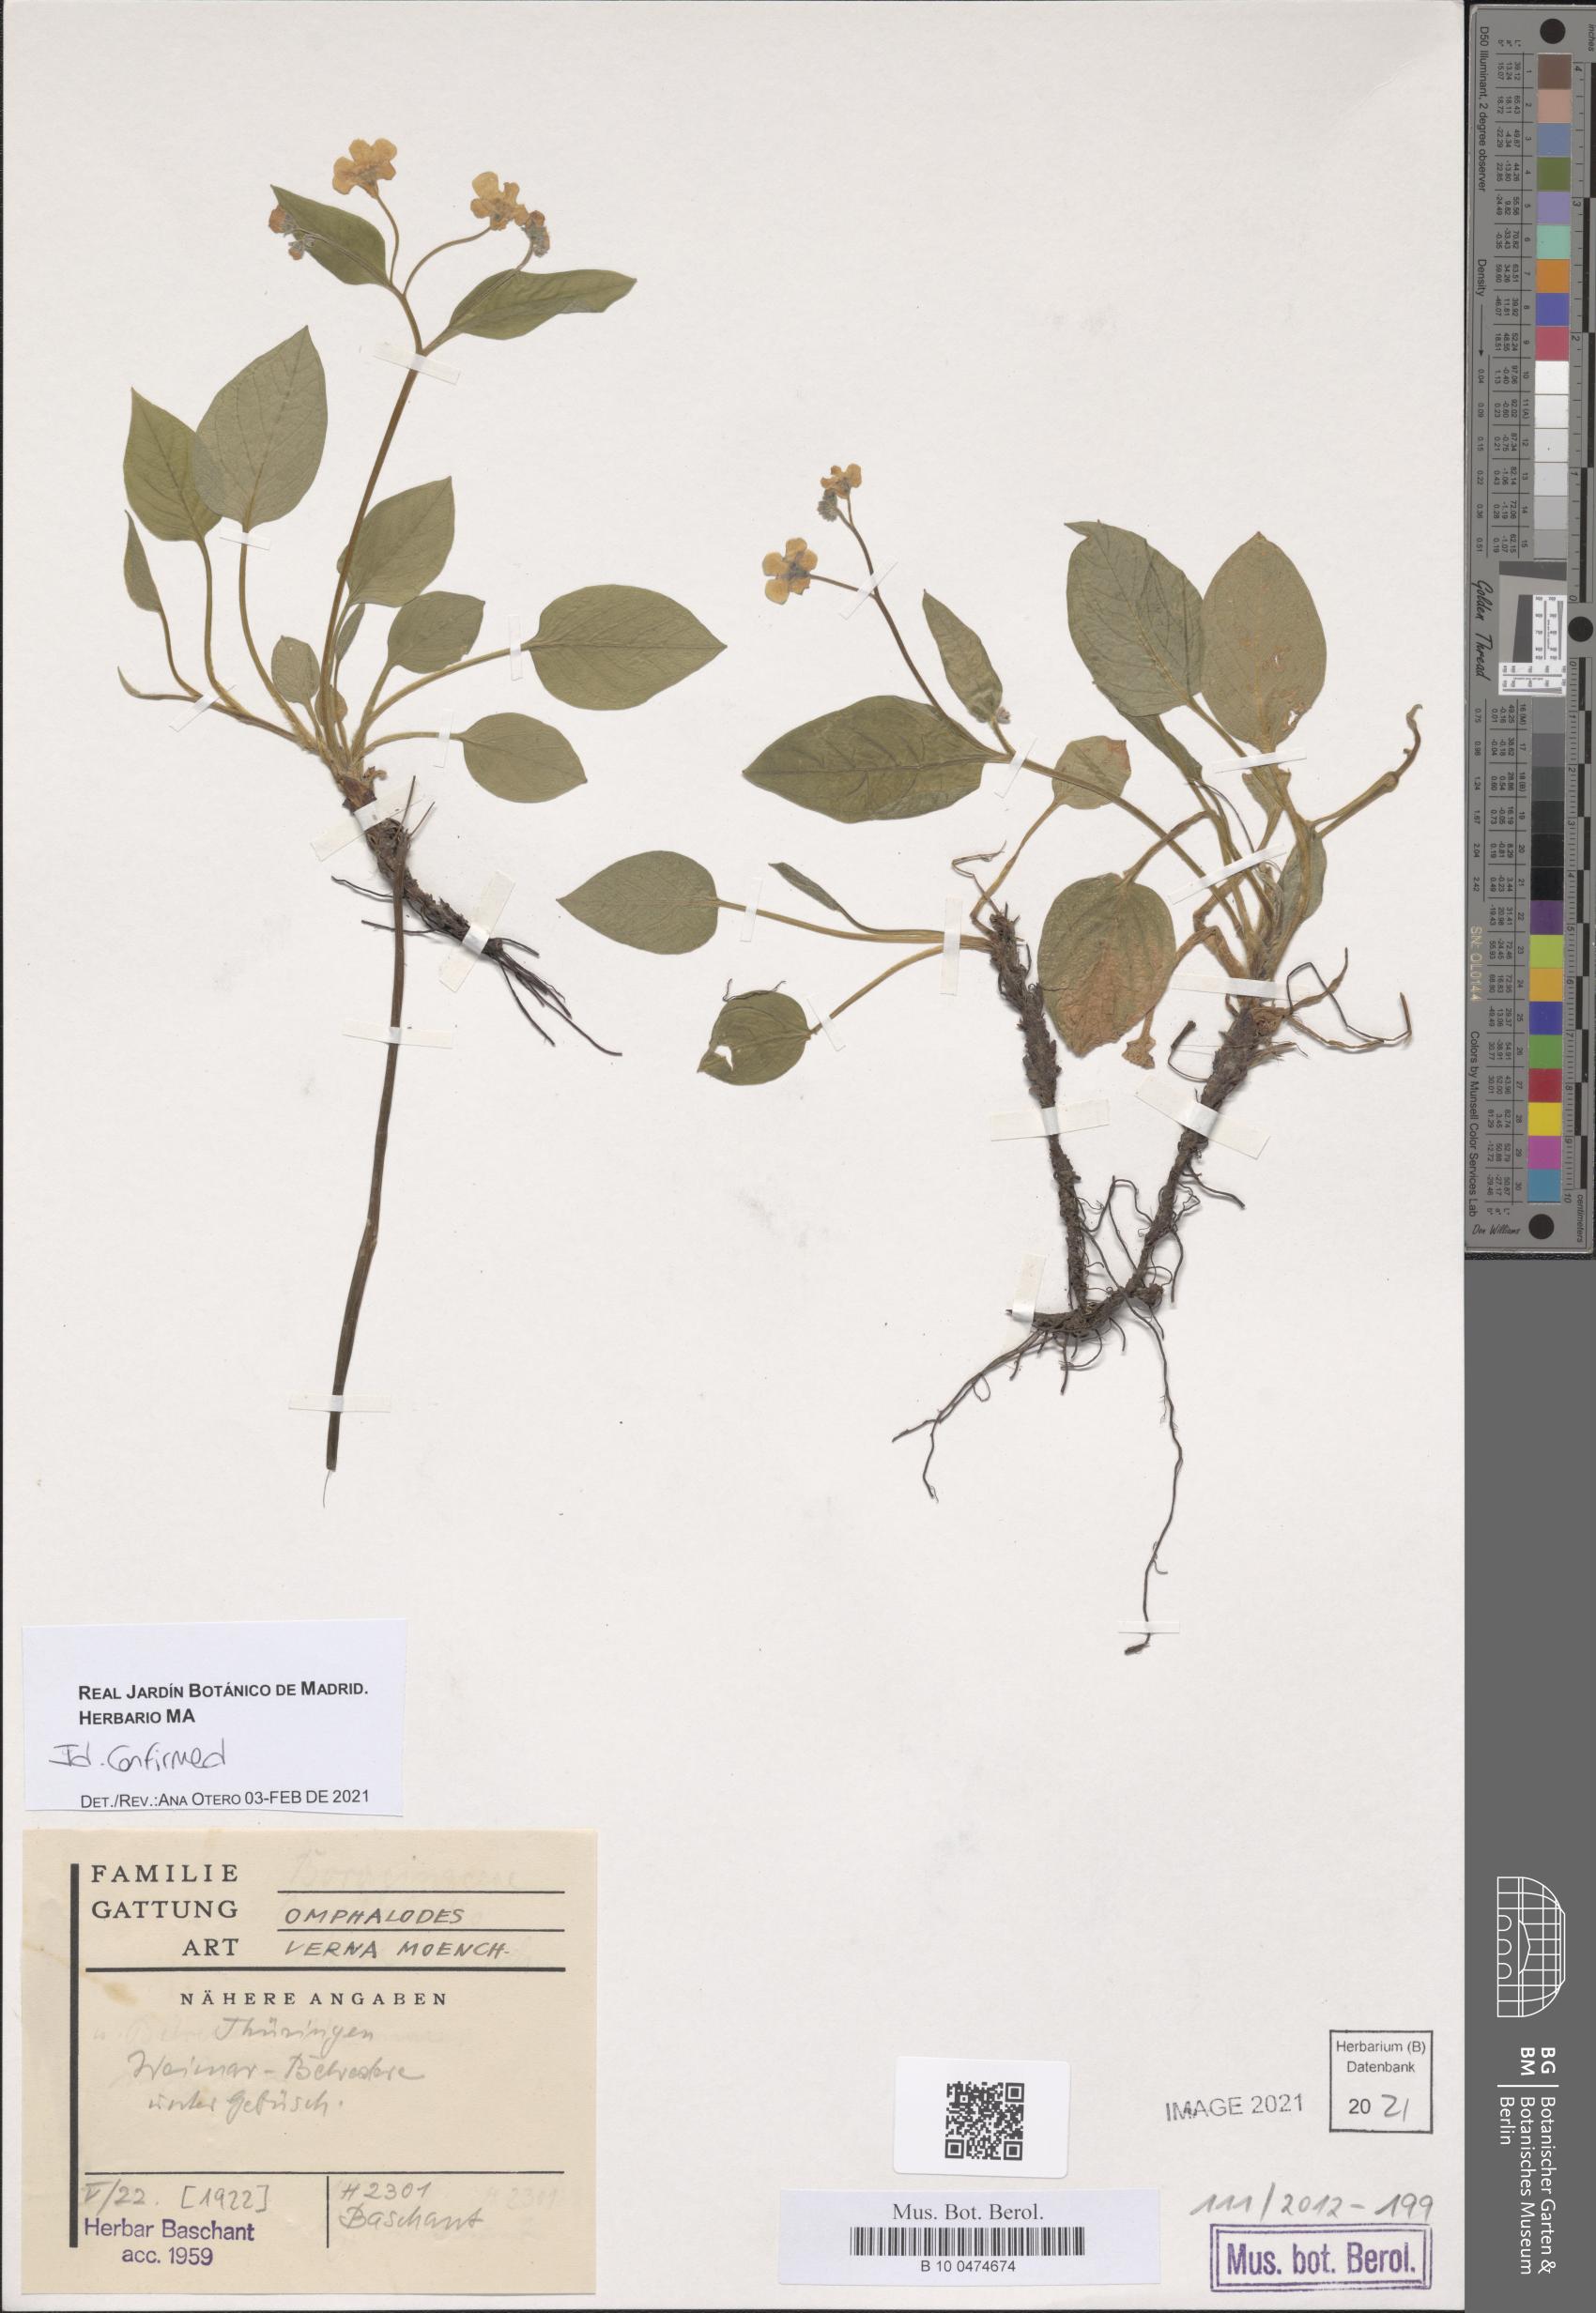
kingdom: Plantae
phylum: Tracheophyta
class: Magnoliopsida
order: Boraginales
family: Boraginaceae
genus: Omphalodes
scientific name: Omphalodes verna
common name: Blue-eyed-mary
